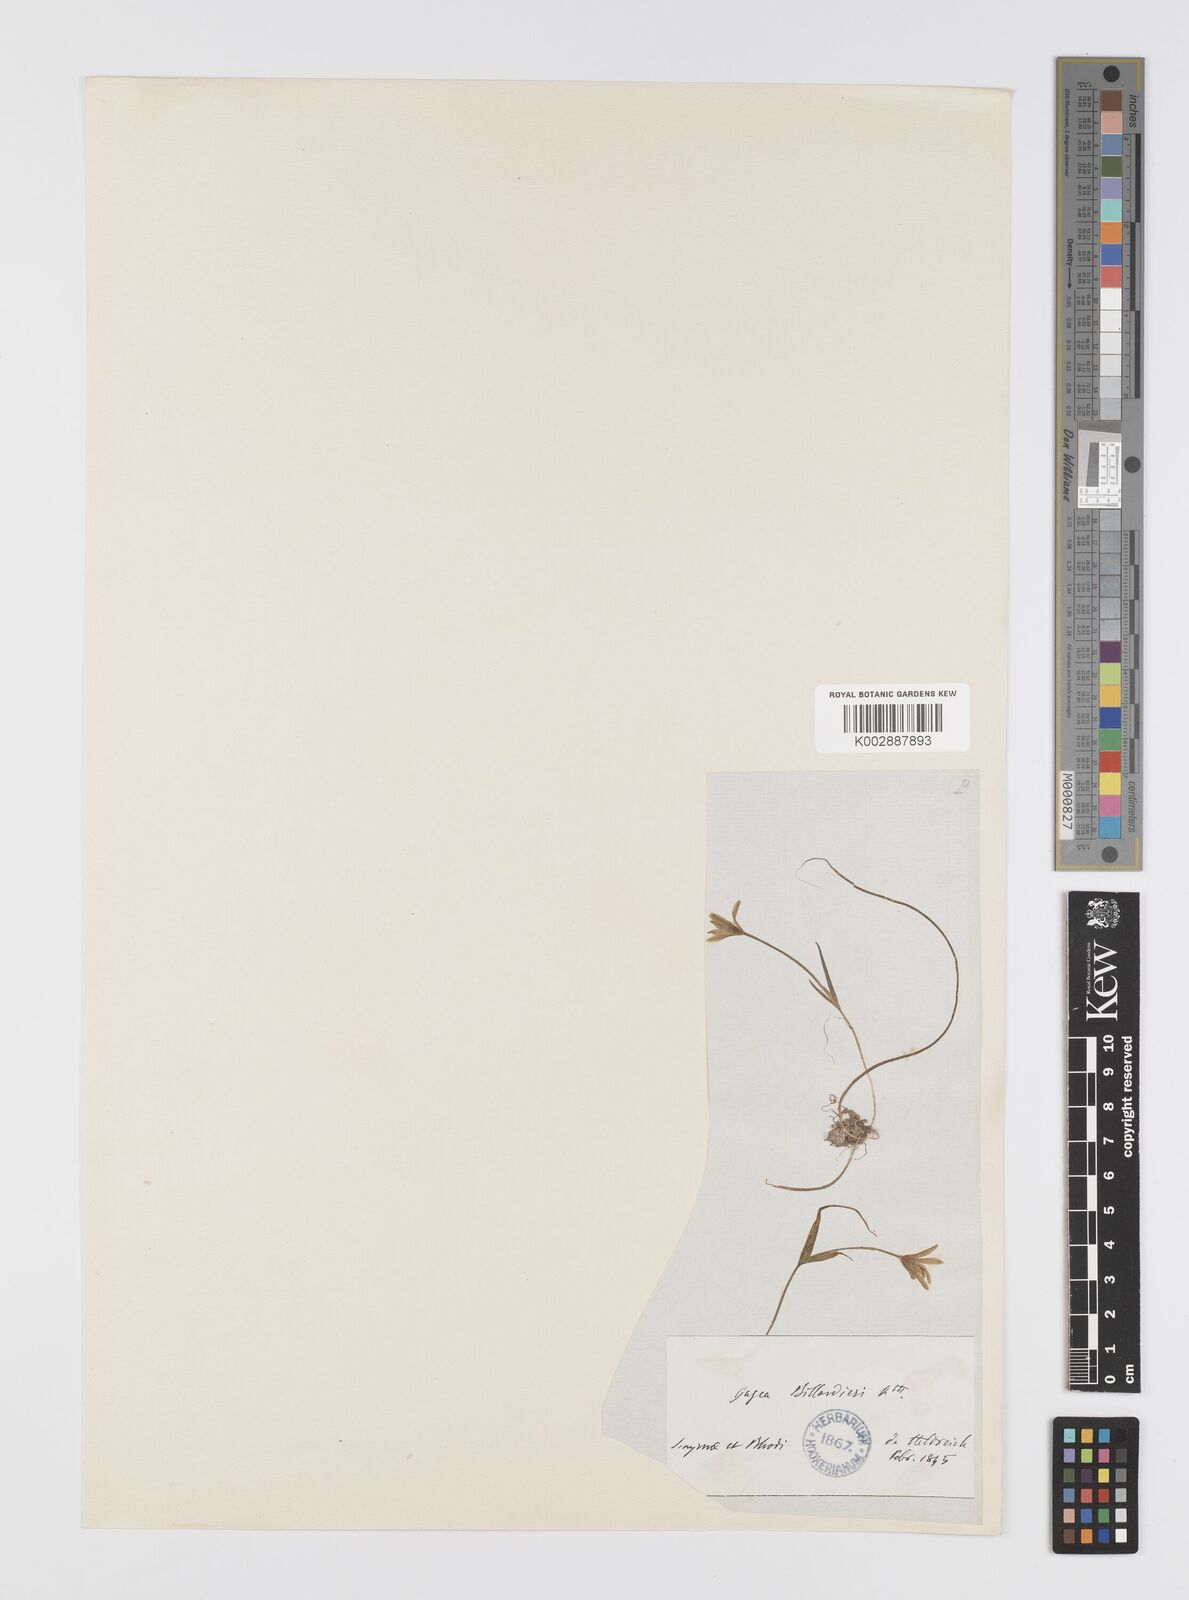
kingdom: Plantae
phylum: Tracheophyta
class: Liliopsida
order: Liliales
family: Liliaceae
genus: Gagea
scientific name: Gagea peduncularis
